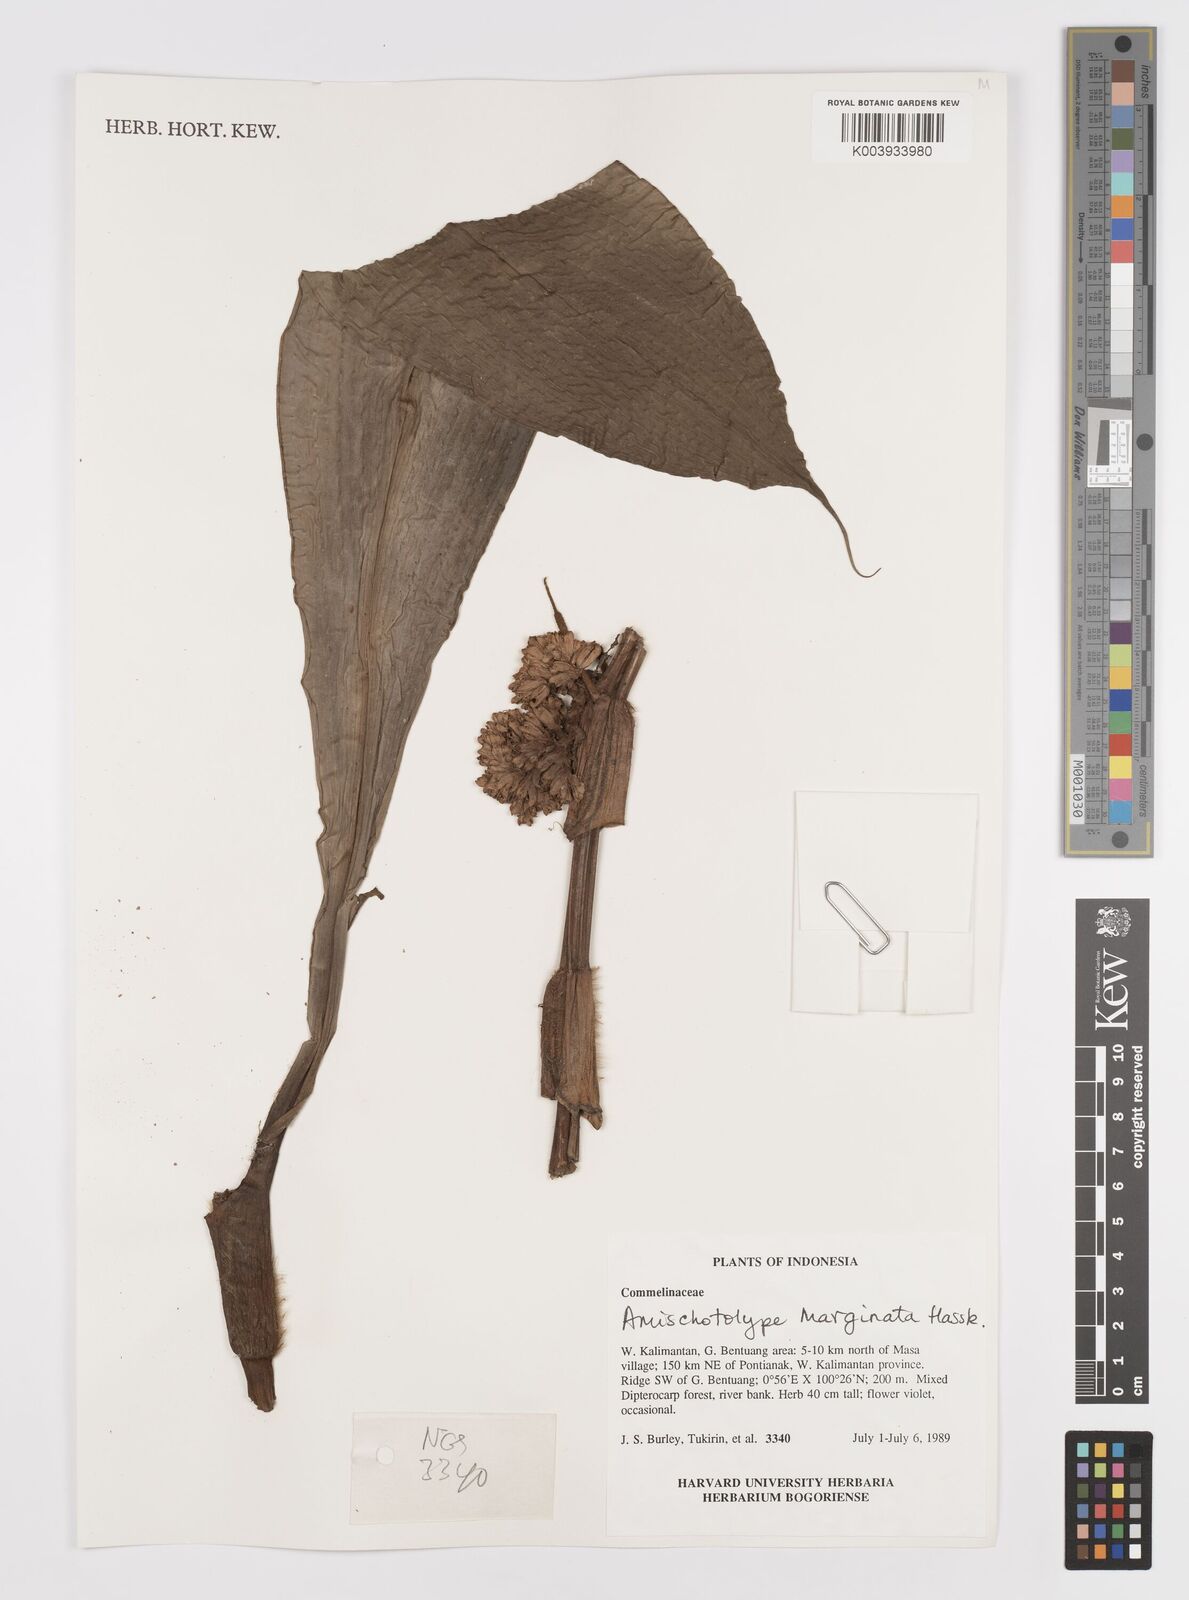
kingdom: Plantae
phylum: Tracheophyta
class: Liliopsida
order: Commelinales
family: Commelinaceae
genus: Amischotolype
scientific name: Amischotolype marginata
